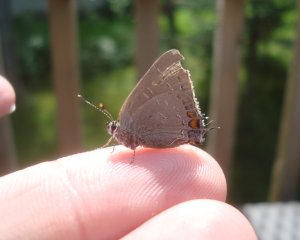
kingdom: Animalia
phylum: Arthropoda
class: Insecta
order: Lepidoptera
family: Lycaenidae
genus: Satyrium
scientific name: Satyrium calanus
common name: Banded Hairstreak
